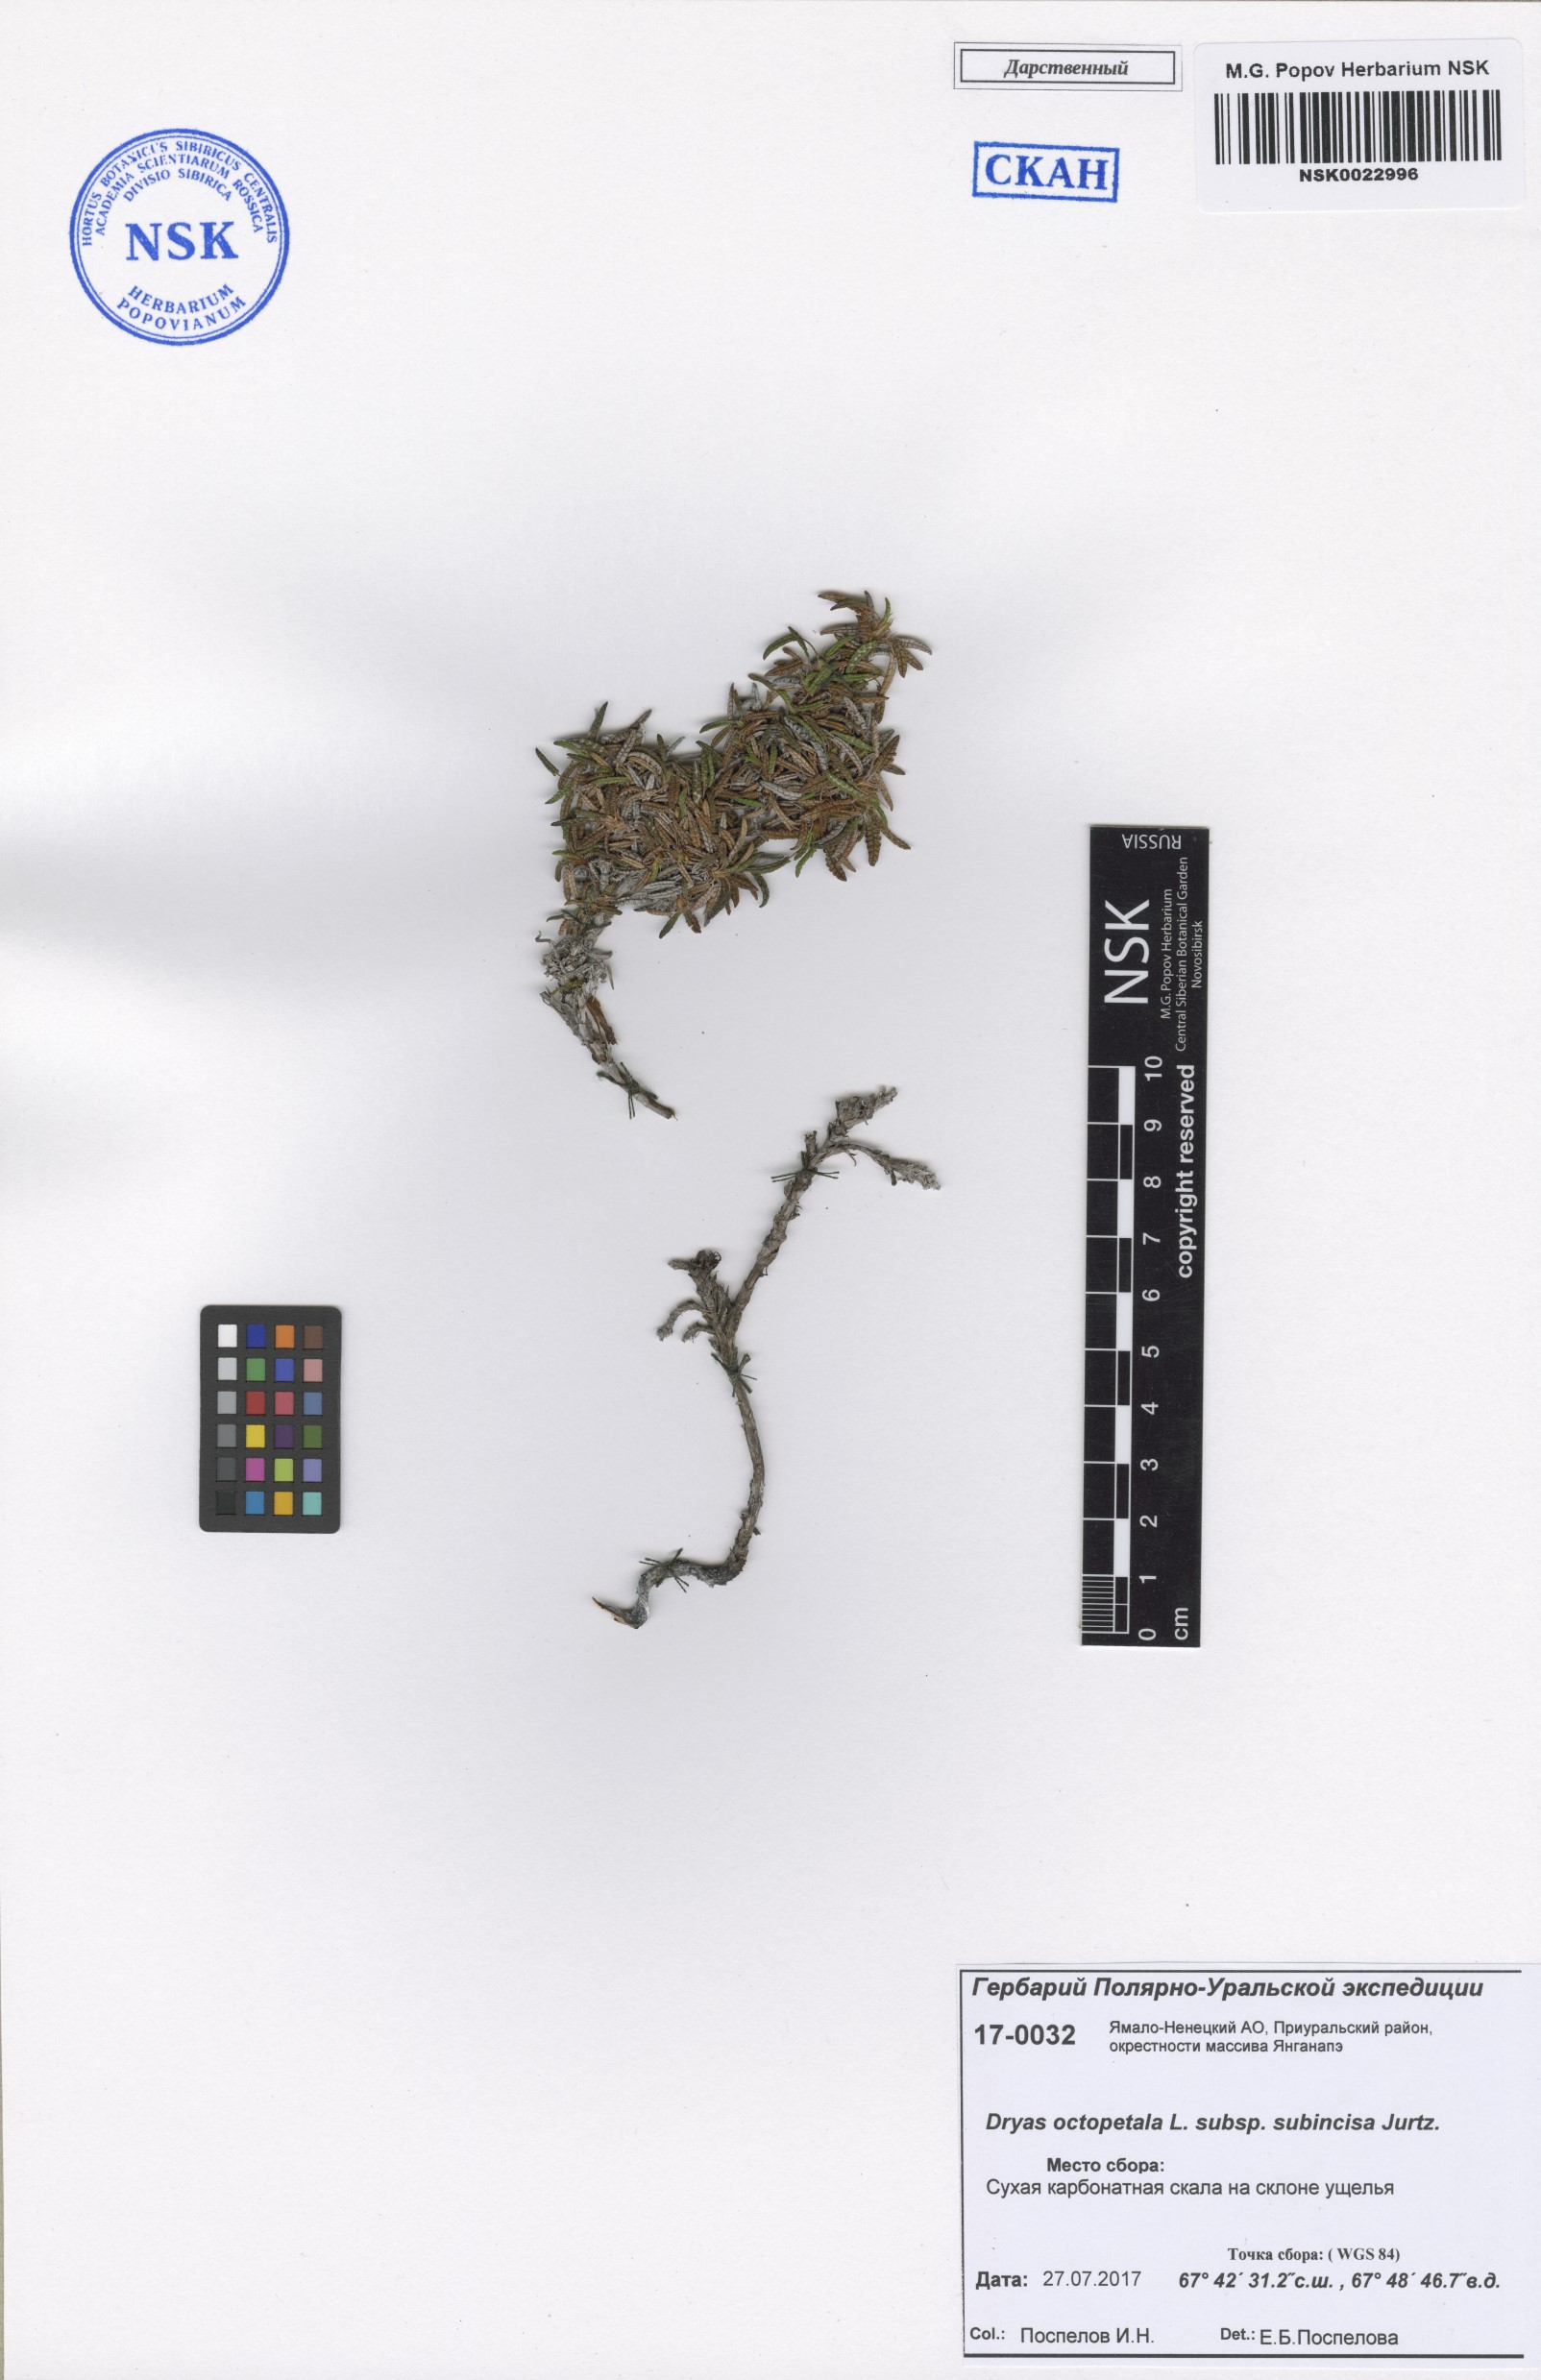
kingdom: Plantae
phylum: Tracheophyta
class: Magnoliopsida
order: Rosales
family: Rosaceae
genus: Dryas
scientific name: Dryas octopetala
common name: Eight-petal mountain-avens
